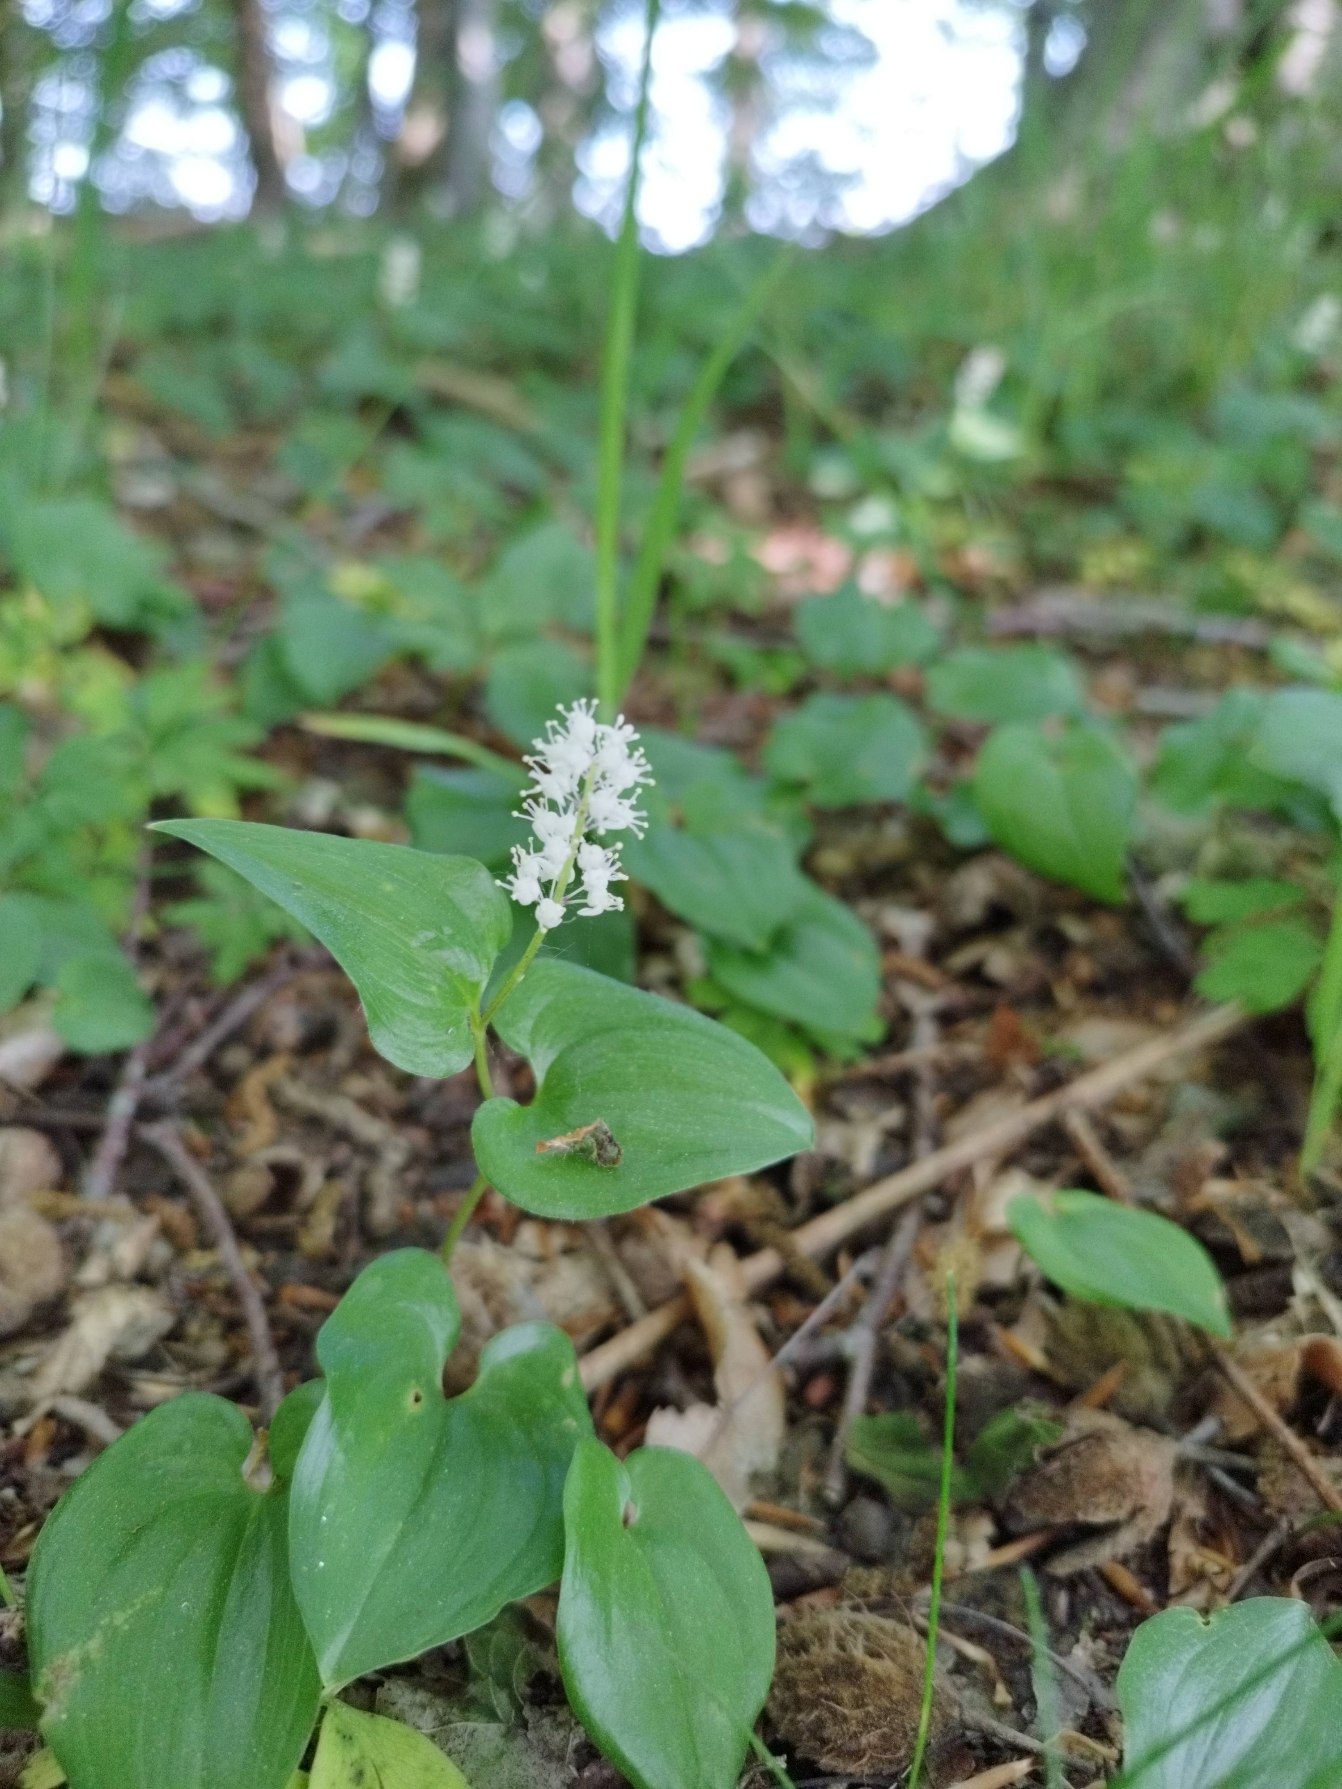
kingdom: Plantae
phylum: Tracheophyta
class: Liliopsida
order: Asparagales
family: Asparagaceae
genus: Maianthemum
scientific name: Maianthemum bifolium
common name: Majblomst
